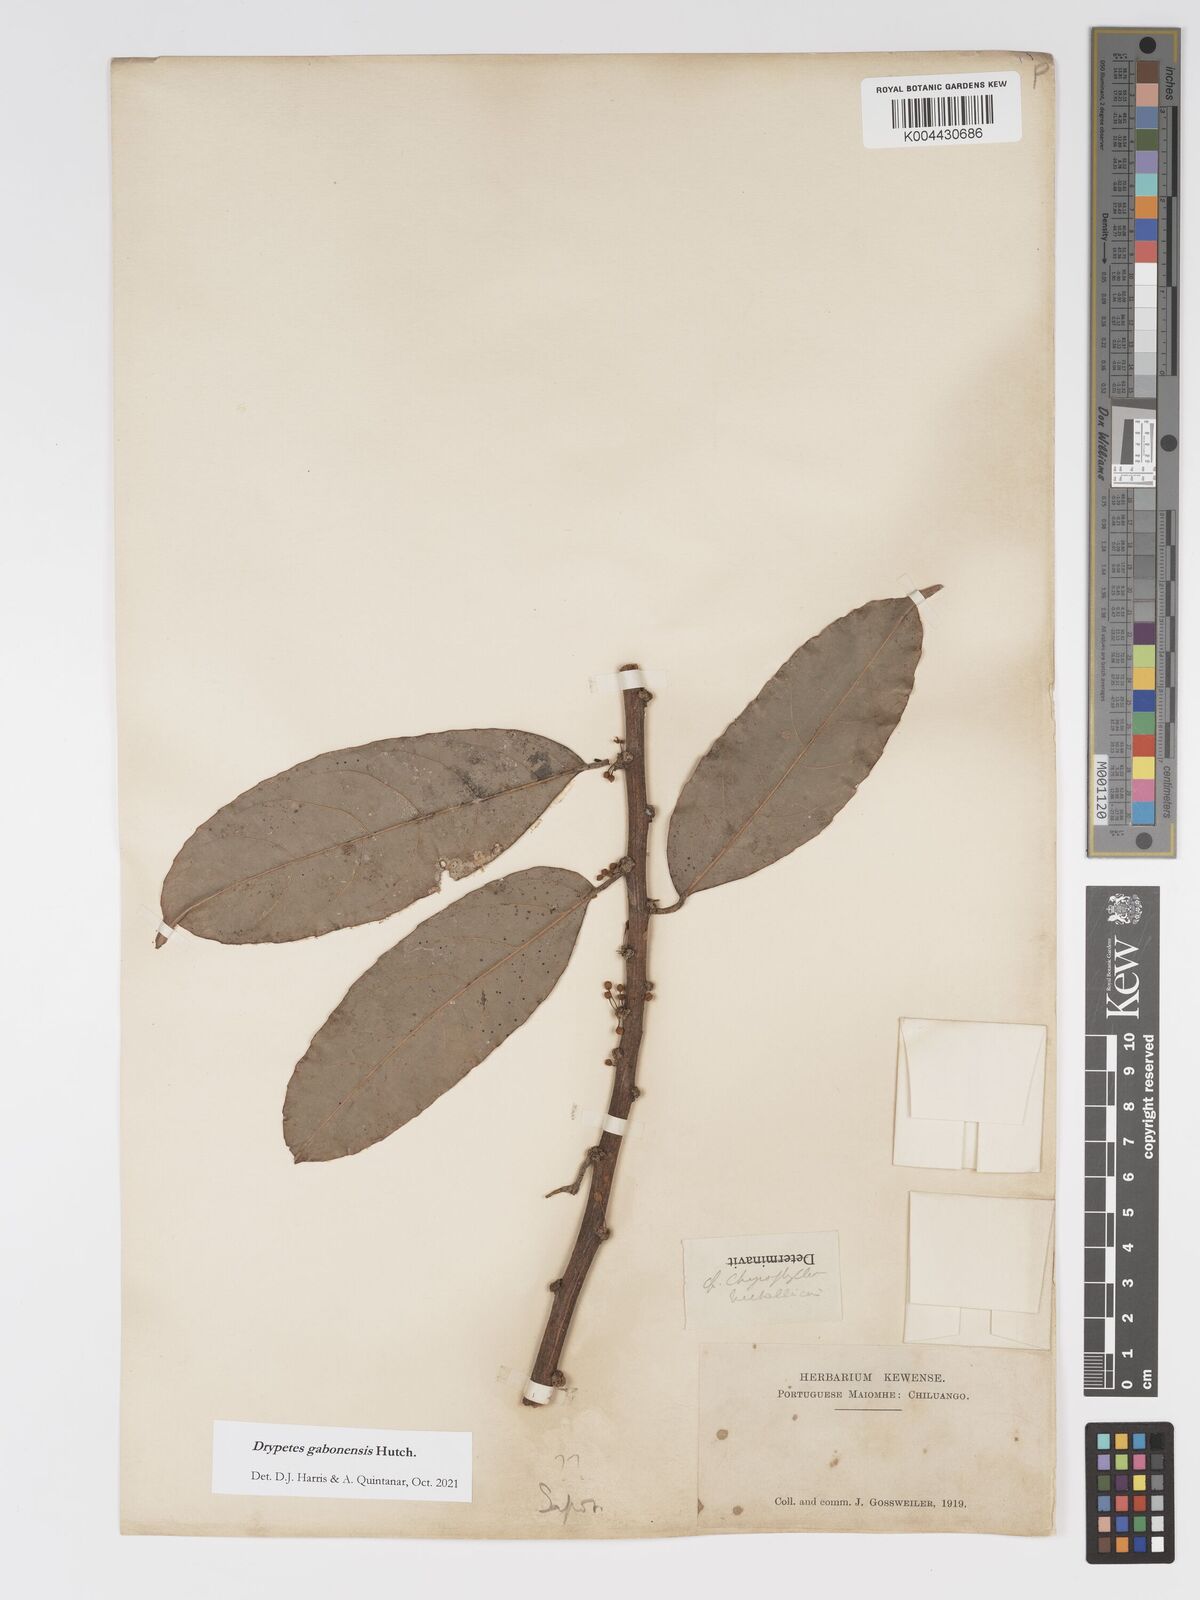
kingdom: Plantae
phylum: Tracheophyta
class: Magnoliopsida
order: Malpighiales
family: Putranjivaceae
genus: Drypetes
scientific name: Drypetes gabonensis
